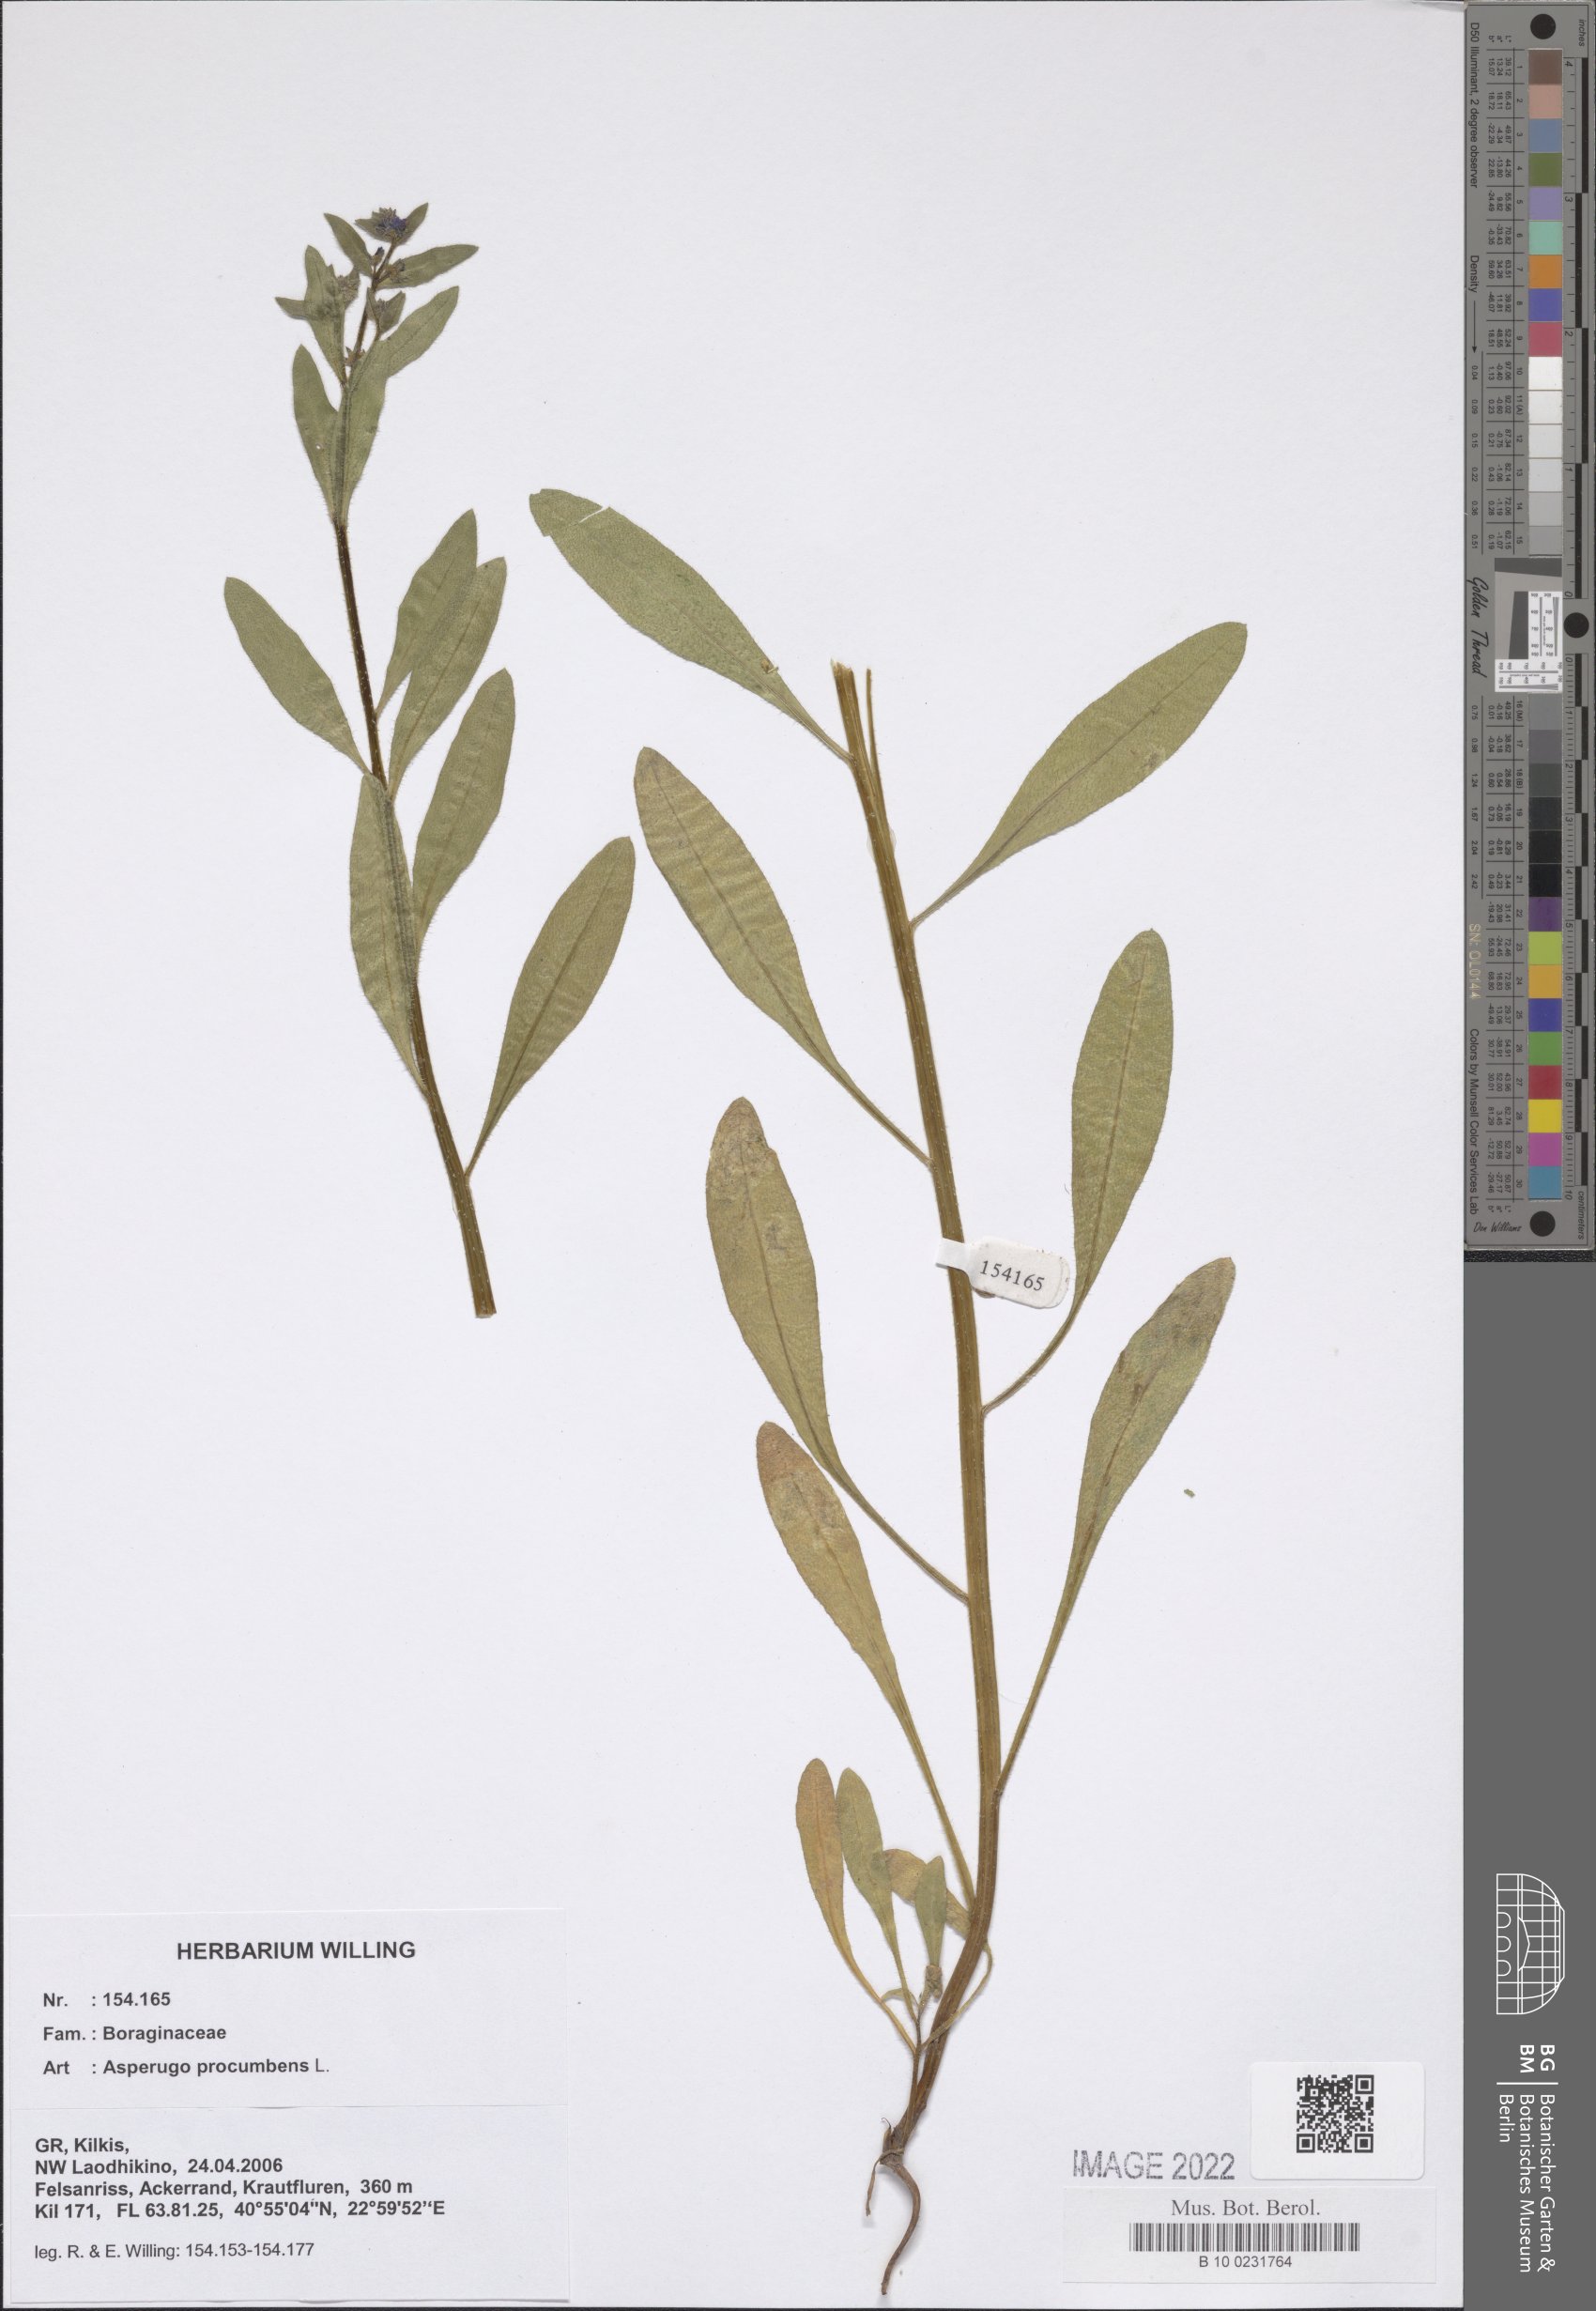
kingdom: Plantae
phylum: Tracheophyta
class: Magnoliopsida
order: Boraginales
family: Boraginaceae
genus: Asperugo
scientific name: Asperugo procumbens
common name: Madwort
